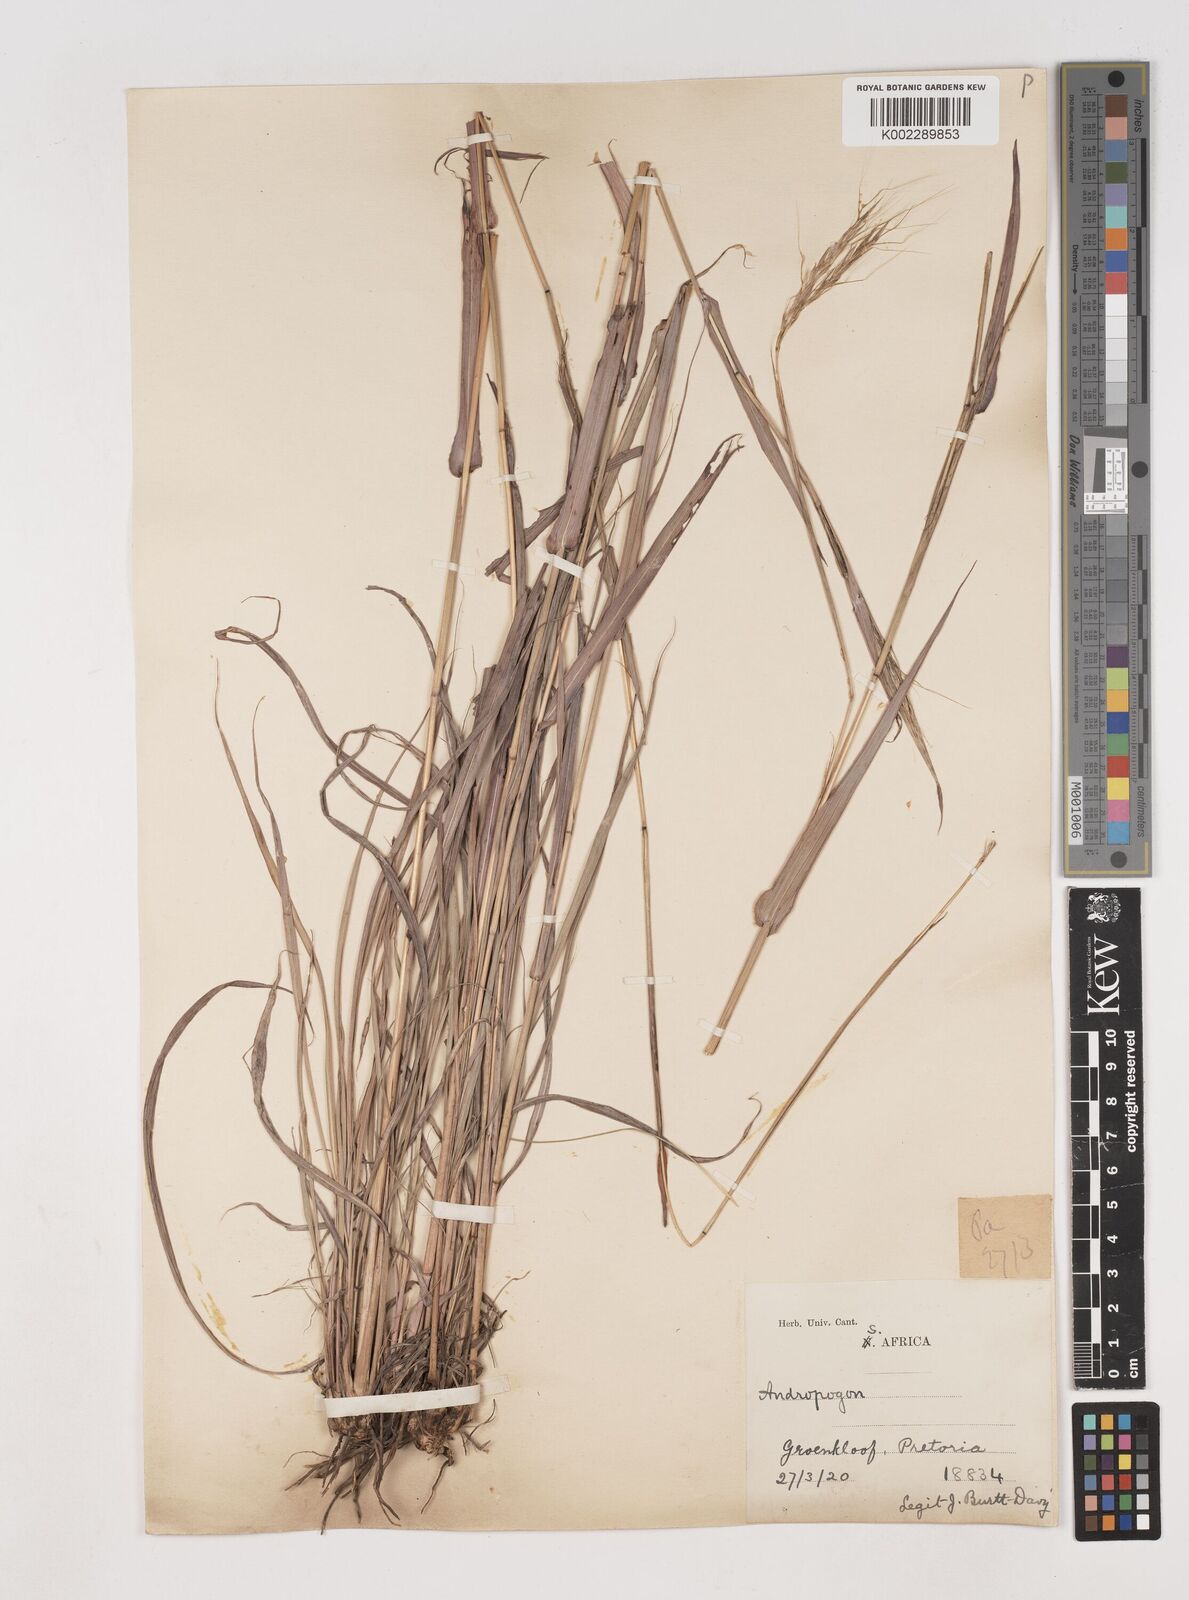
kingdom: Plantae
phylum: Tracheophyta
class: Liliopsida
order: Poales
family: Poaceae
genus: Diheteropogon
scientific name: Diheteropogon amplectens
